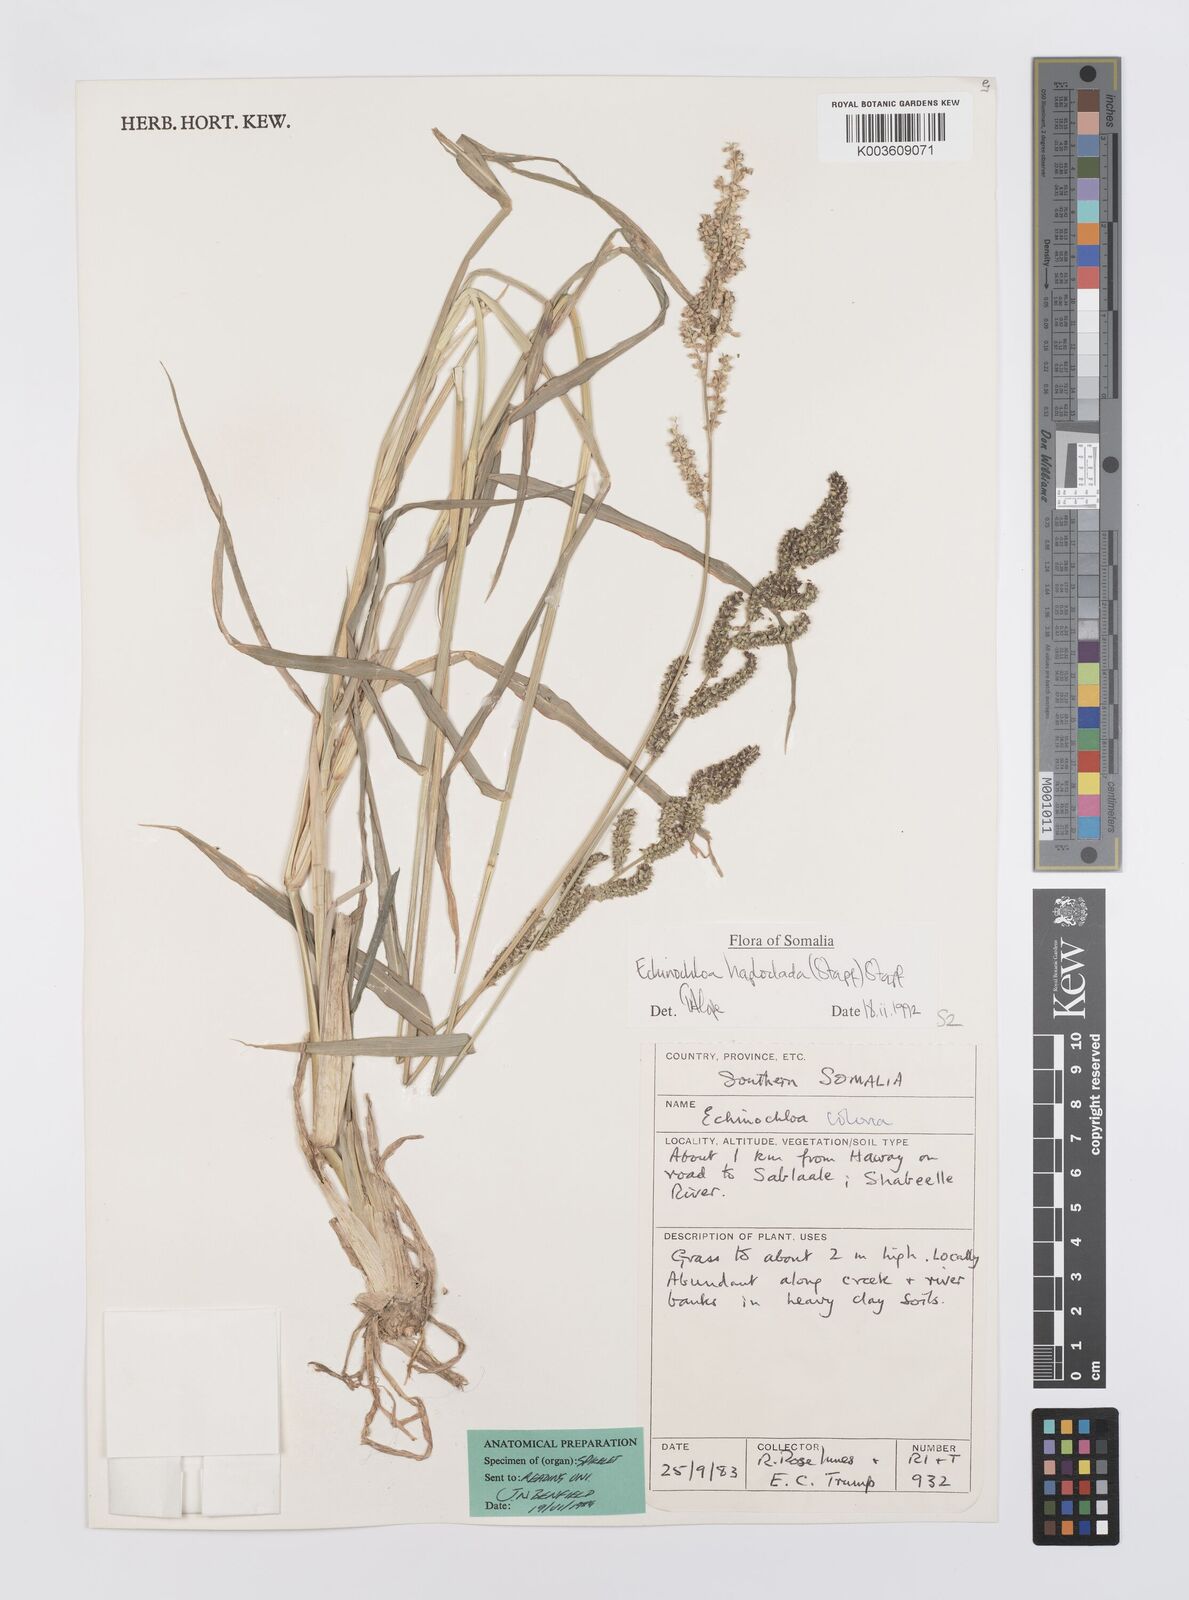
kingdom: Plantae
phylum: Tracheophyta
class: Liliopsida
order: Poales
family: Poaceae
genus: Echinochloa
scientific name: Echinochloa haploclada
